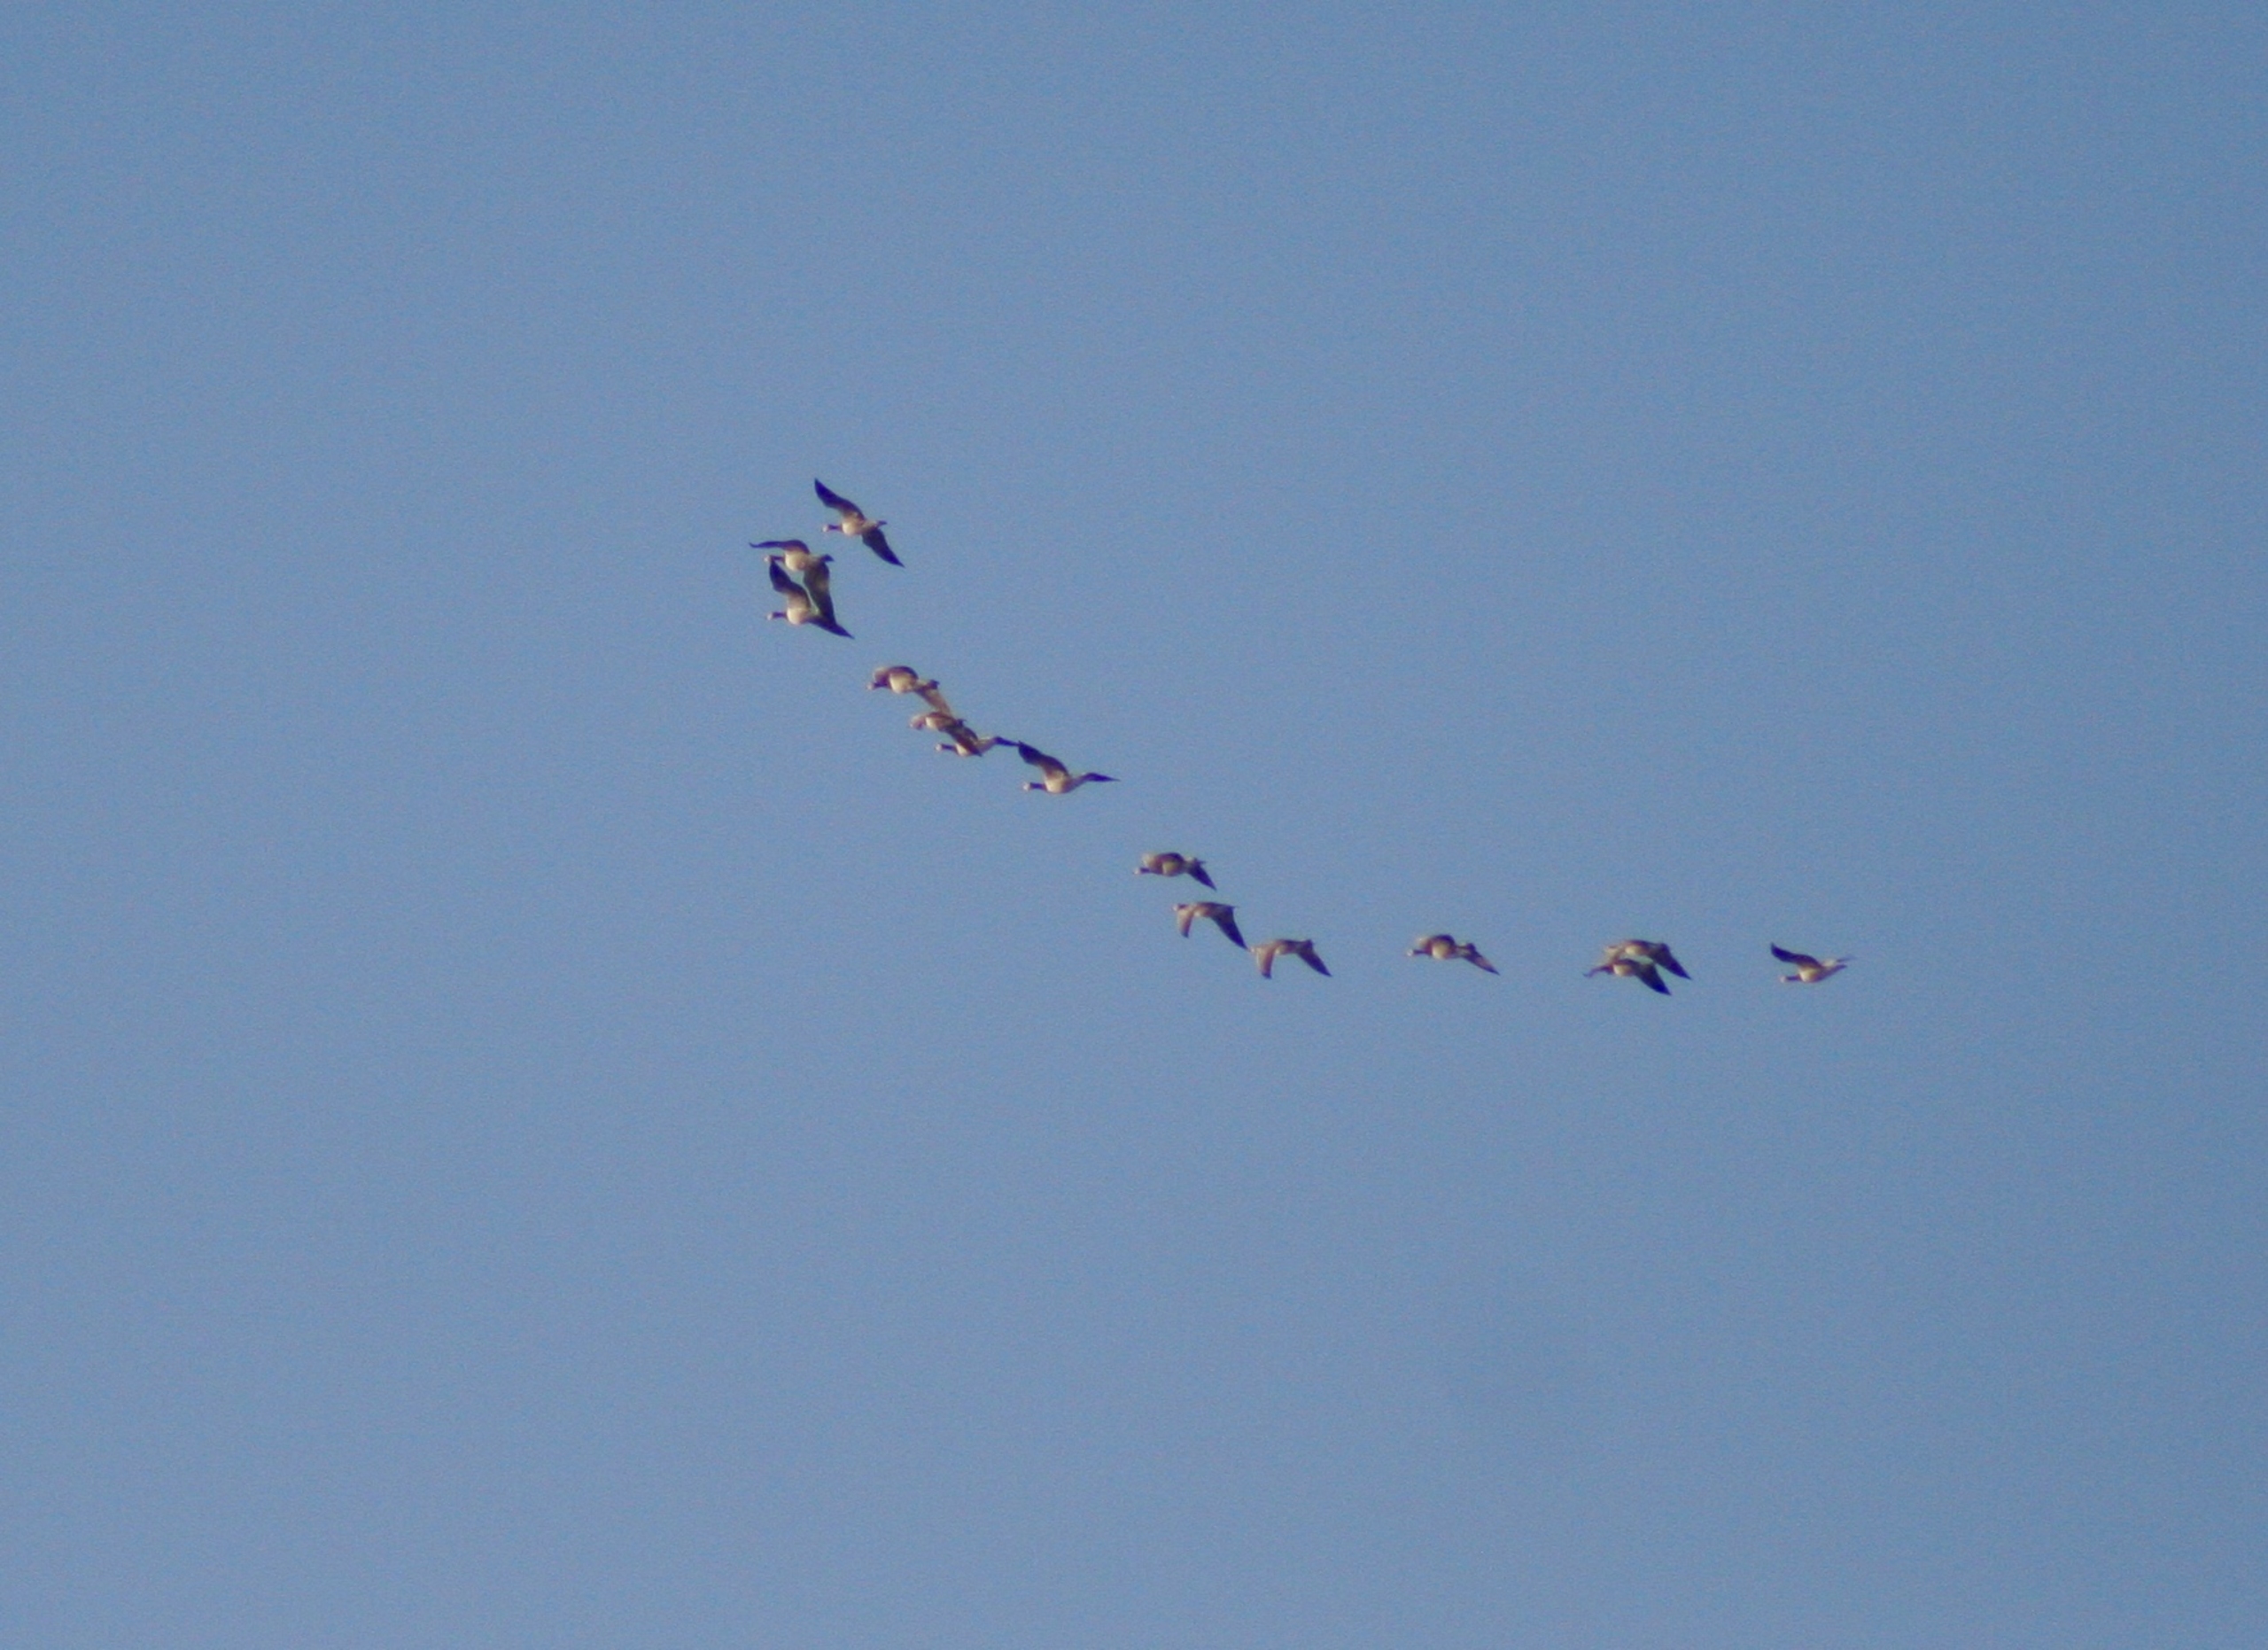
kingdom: Animalia
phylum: Chordata
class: Aves
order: Anseriformes
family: Anatidae
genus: Branta
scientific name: Branta leucopsis
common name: Bramgås
